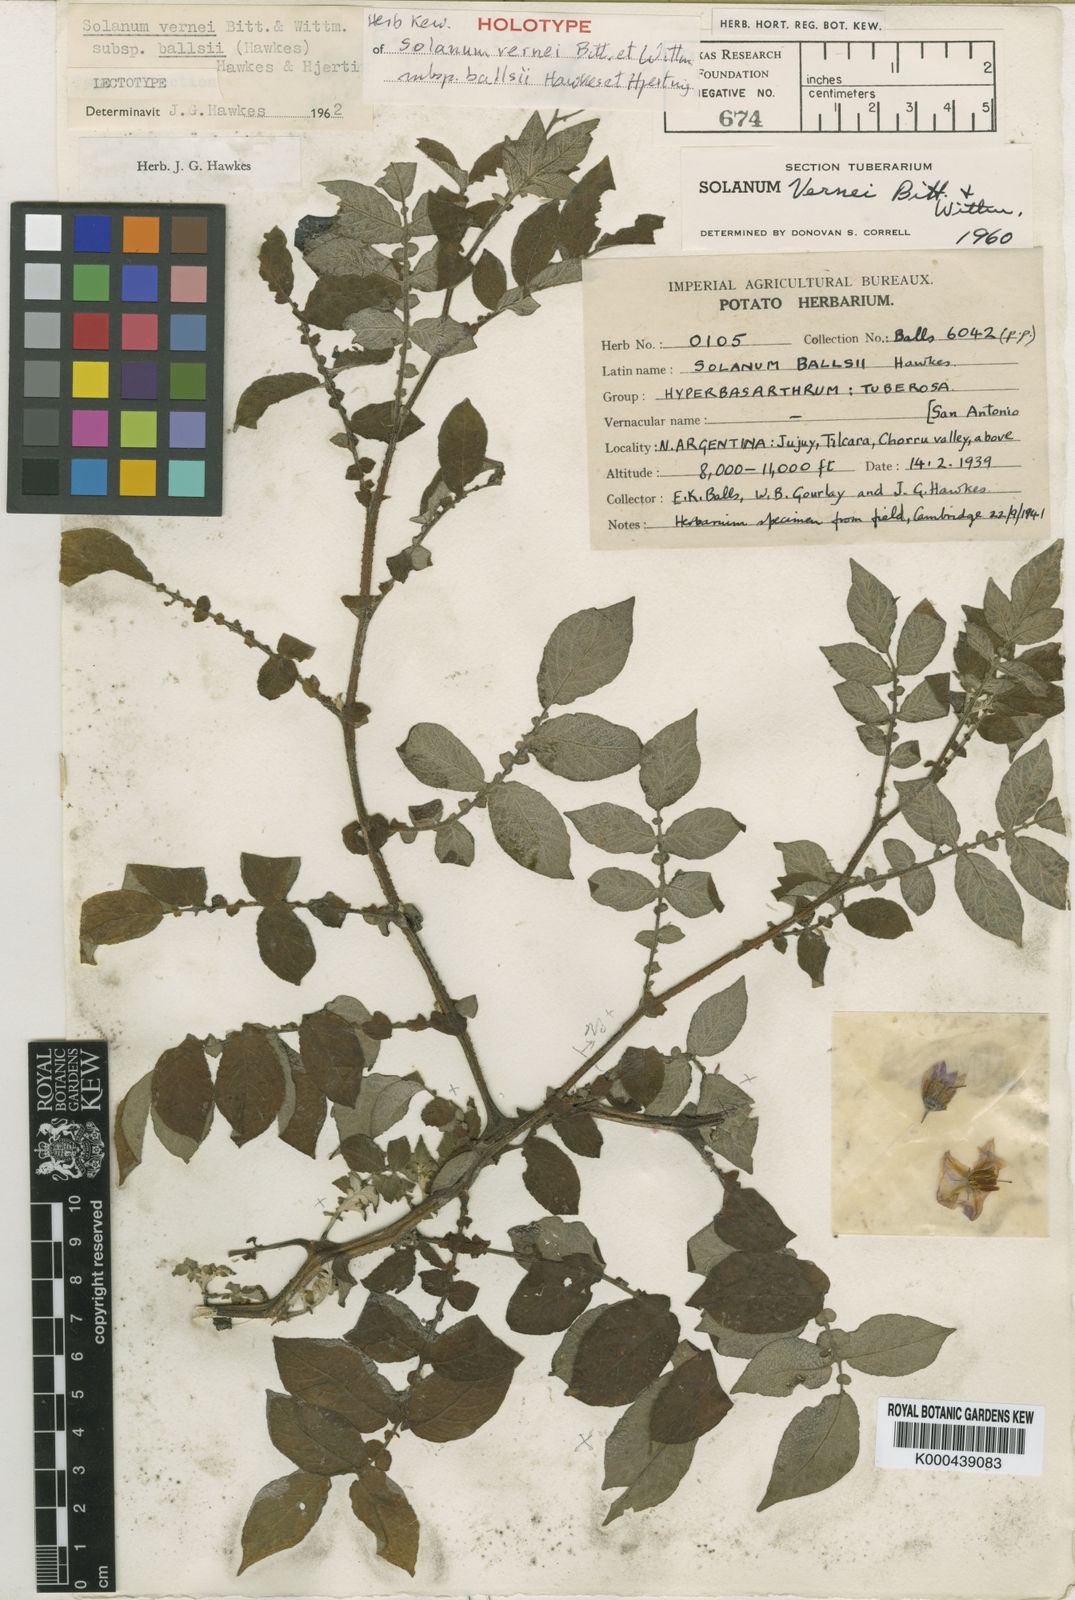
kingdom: Plantae
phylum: Tracheophyta
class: Magnoliopsida
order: Solanales
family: Solanaceae
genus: Solanum
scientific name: Solanum vernei
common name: Purple potato
